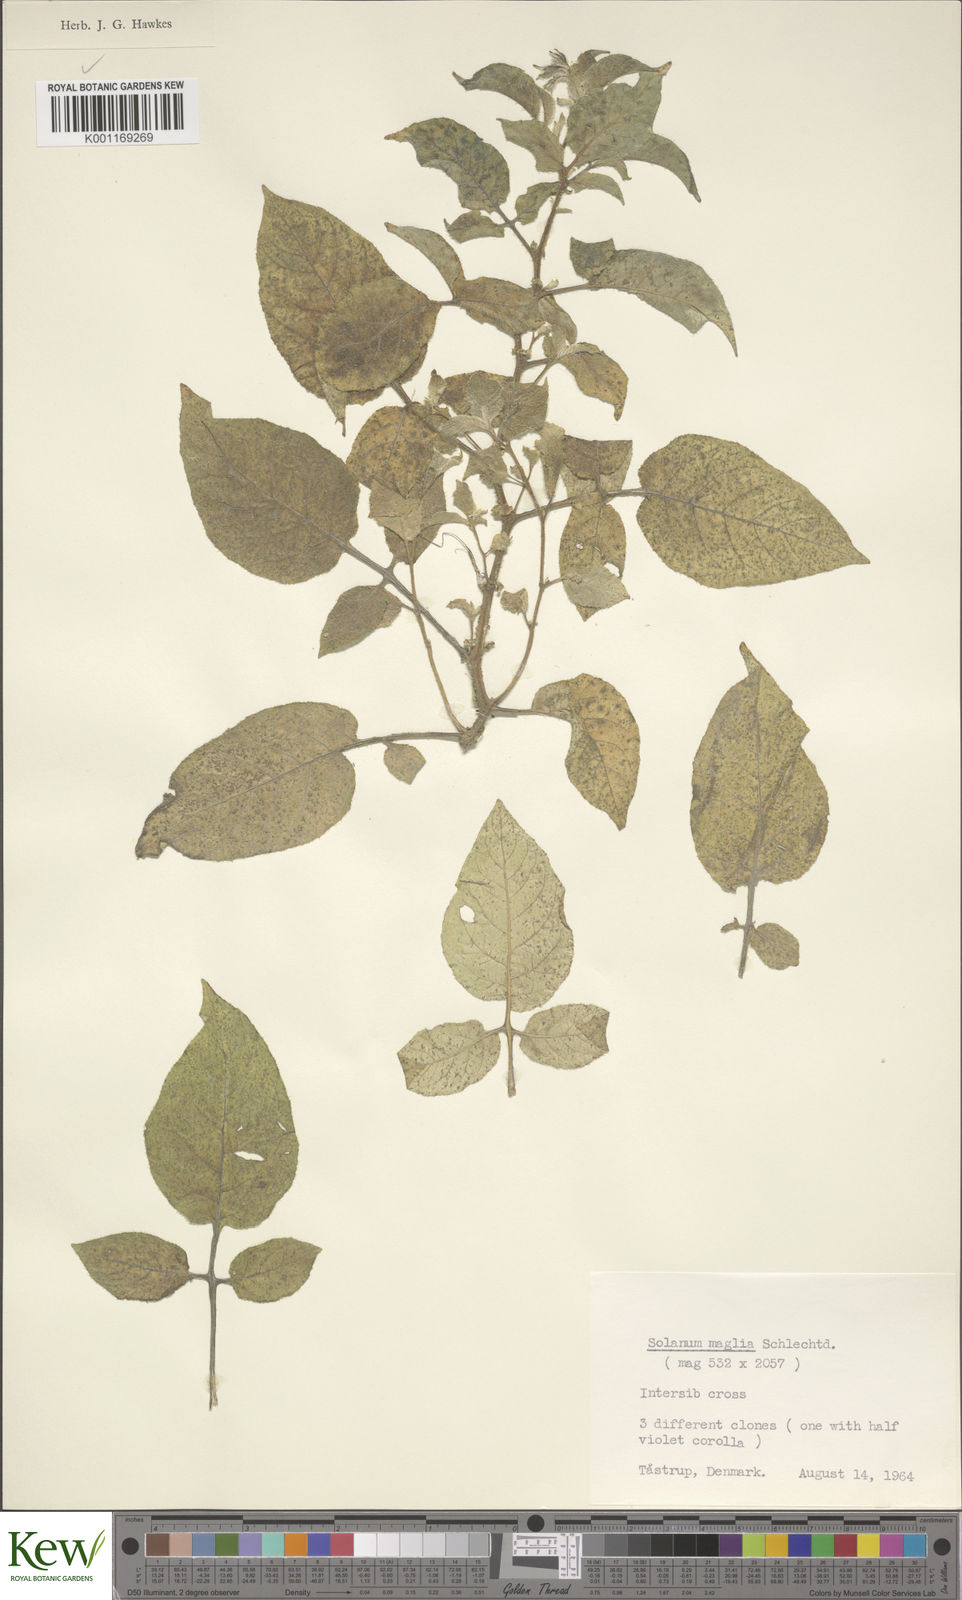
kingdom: Plantae
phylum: Tracheophyta
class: Magnoliopsida
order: Solanales
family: Solanaceae
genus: Solanum
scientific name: Solanum maglia
